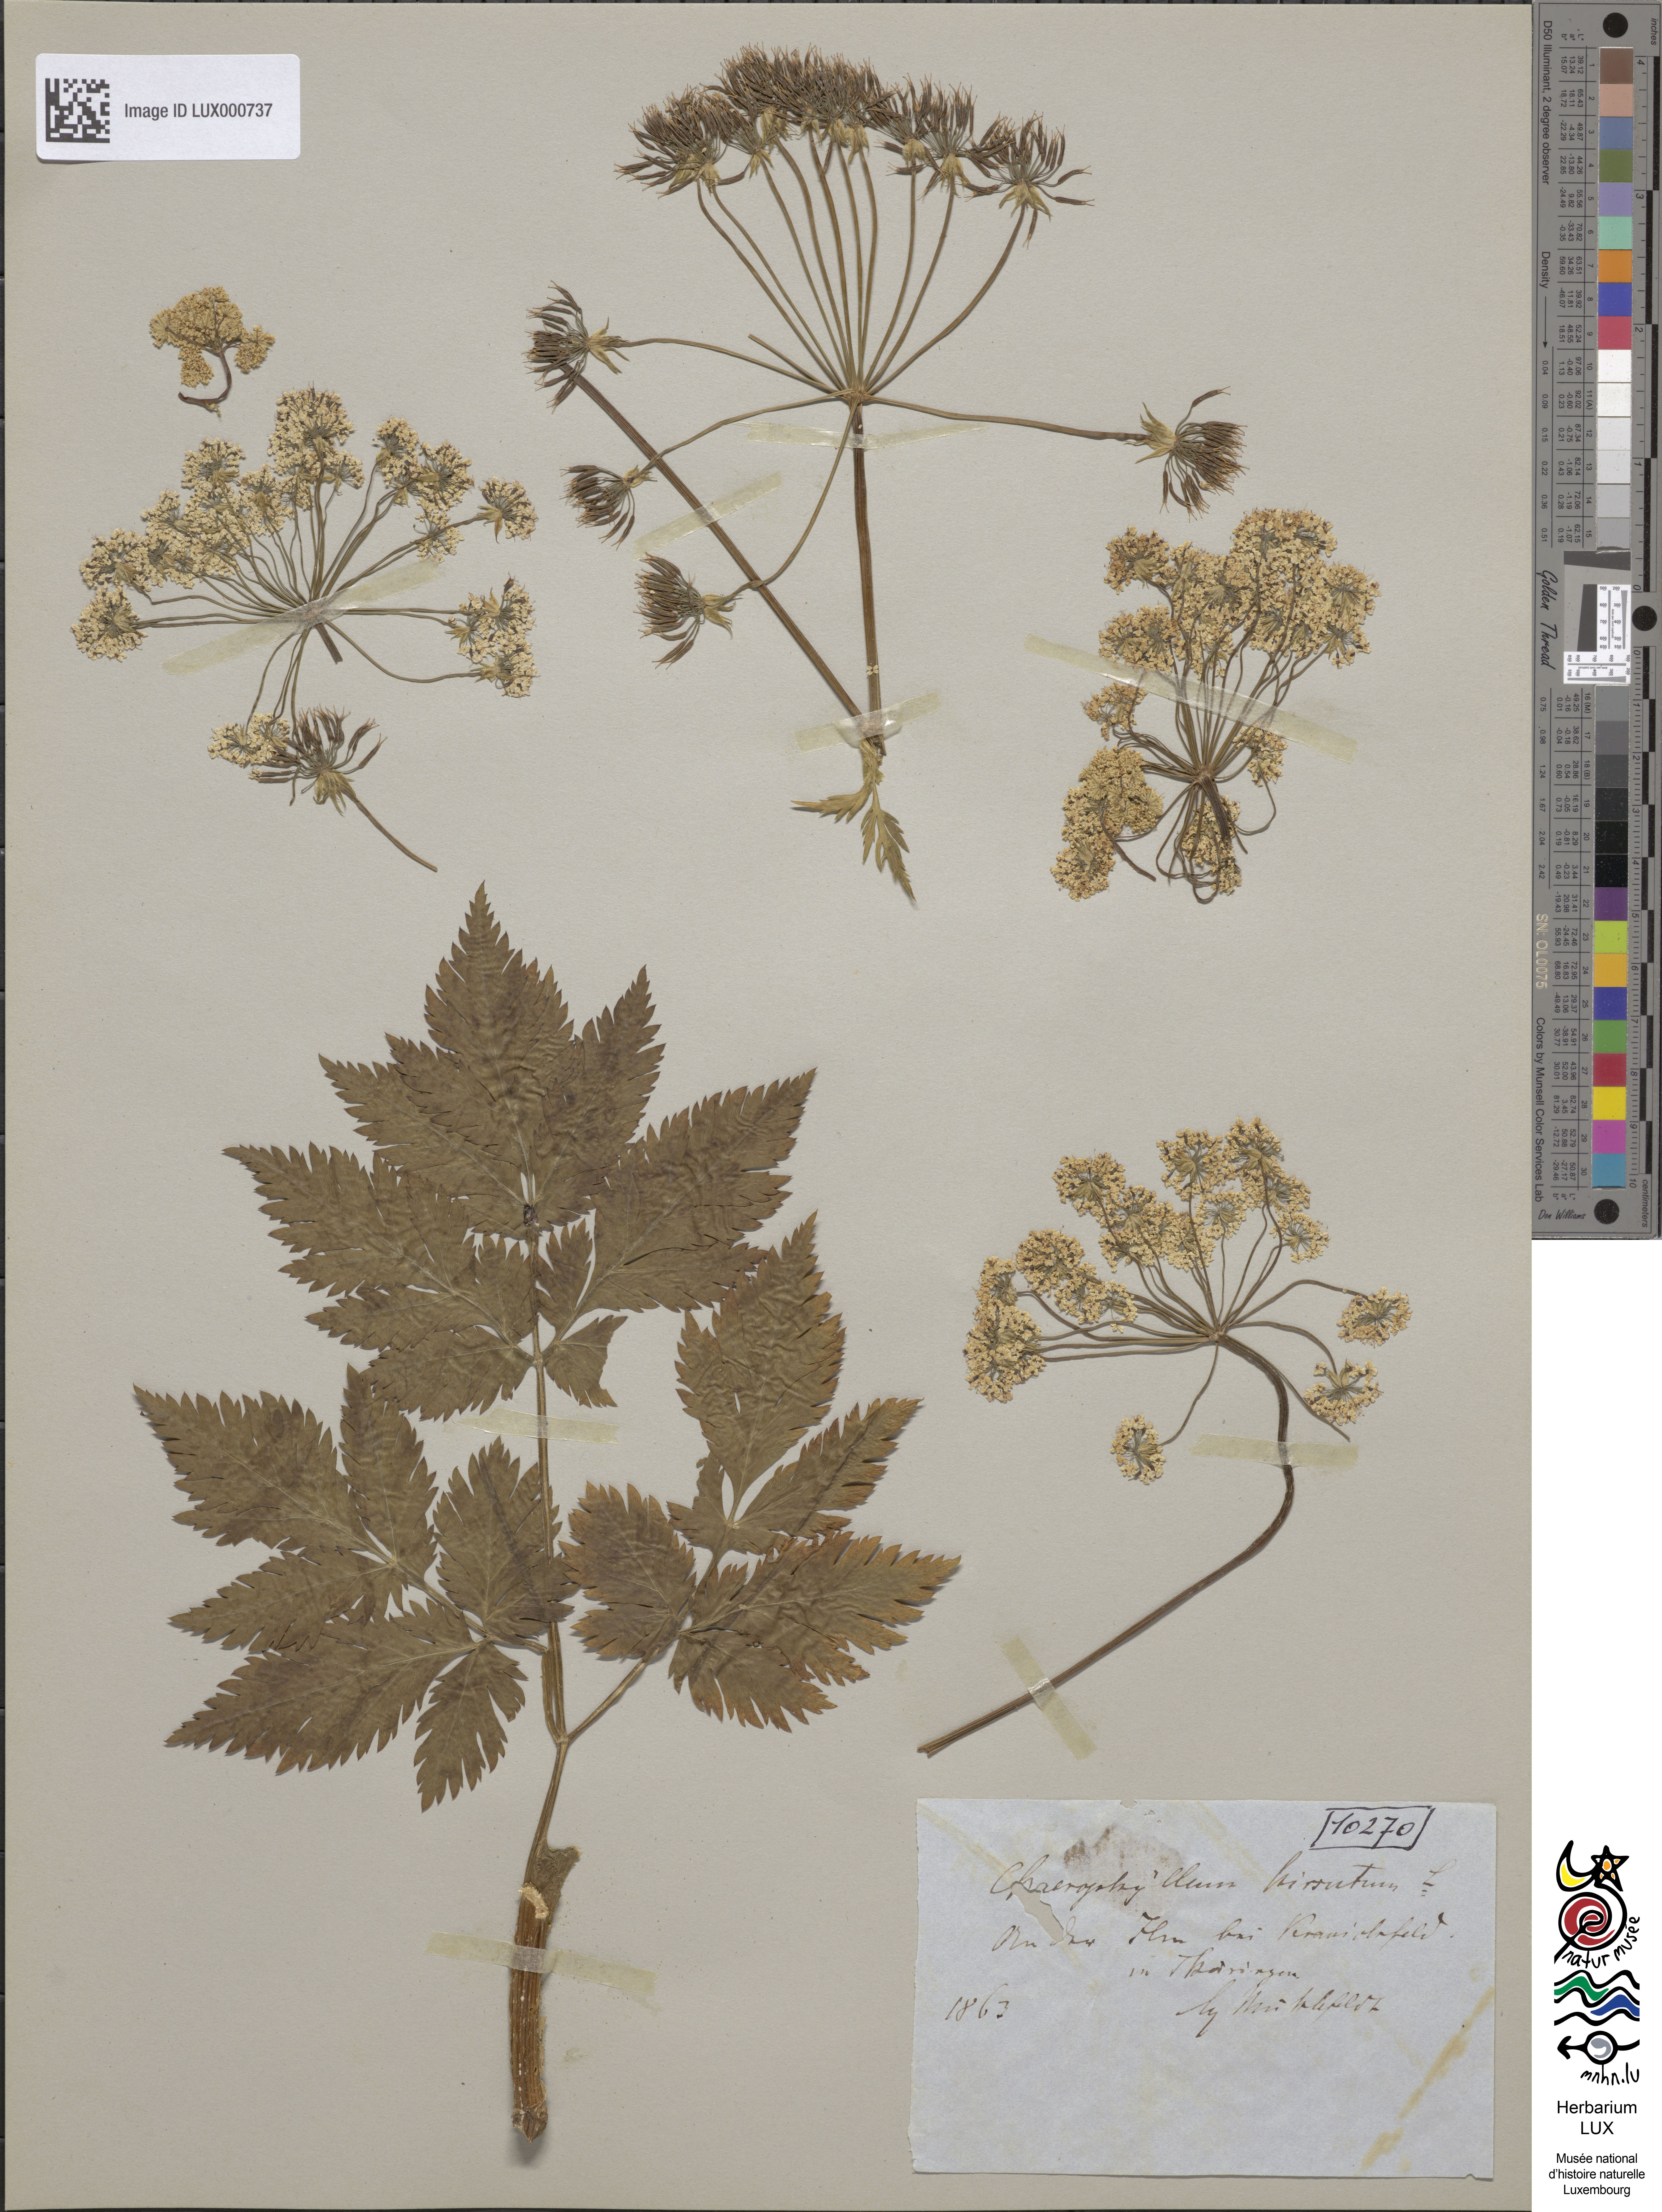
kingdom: Plantae
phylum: Tracheophyta
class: Magnoliopsida
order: Apiales
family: Apiaceae
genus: Chaerophyllum
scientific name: Chaerophyllum hirsutum
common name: Hairy chervil
